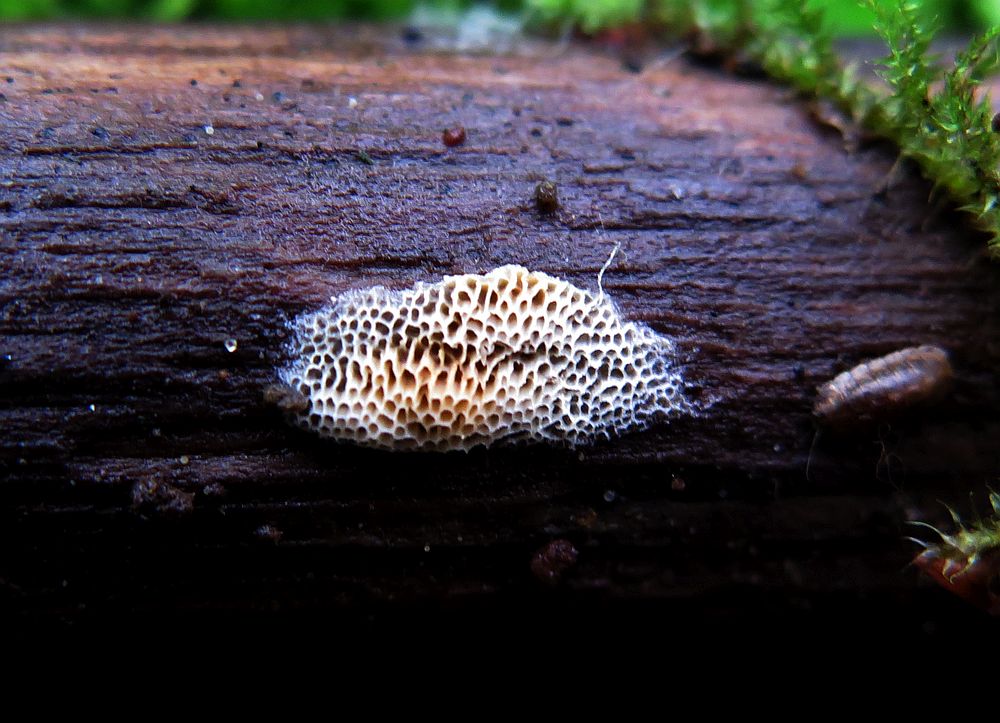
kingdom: Fungi
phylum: Basidiomycota
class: Agaricomycetes
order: Polyporales
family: Irpicaceae
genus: Ceriporia
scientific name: Ceriporia purpurea
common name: purpur-voksporesvamp
